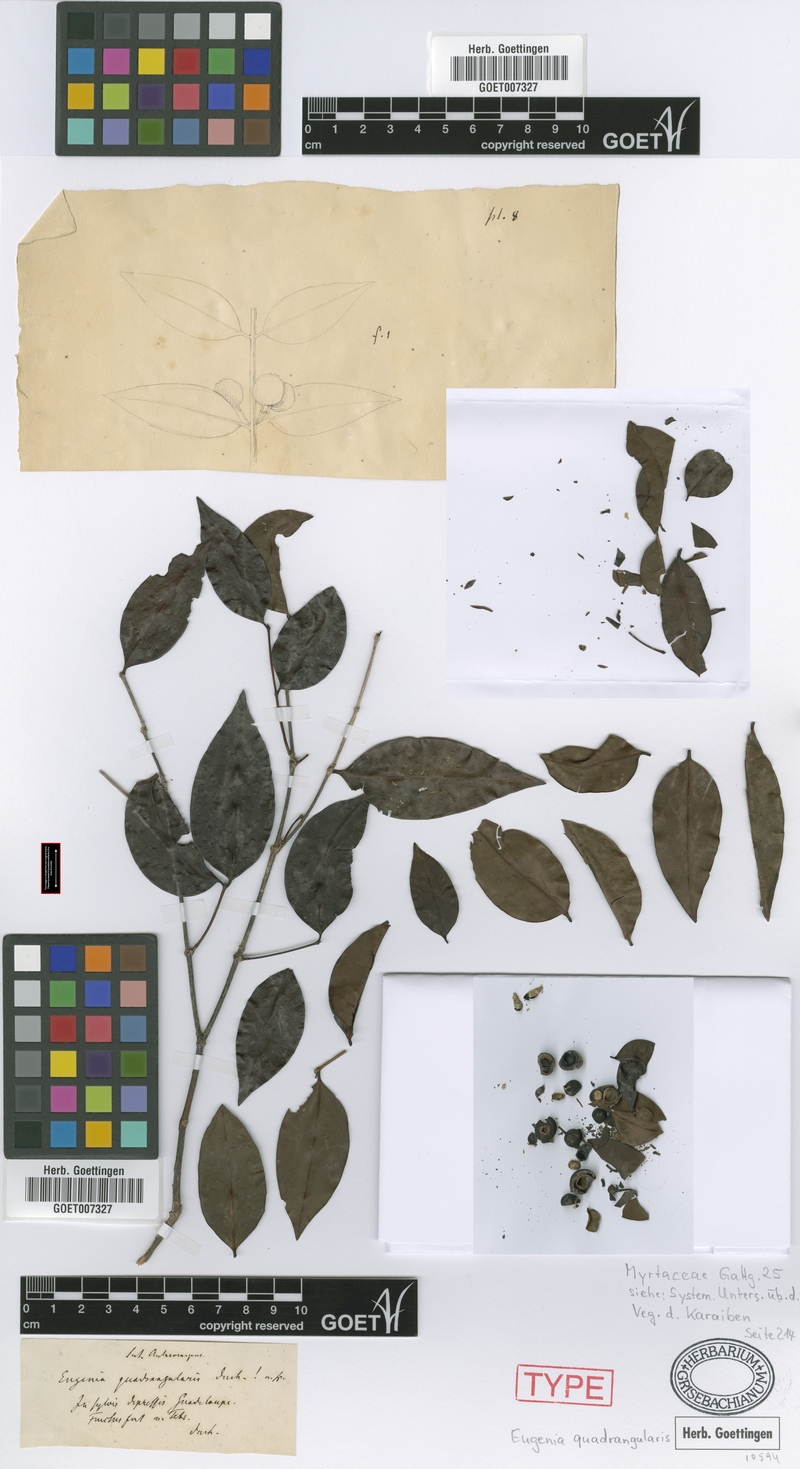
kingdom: Plantae
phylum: Tracheophyta
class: Magnoliopsida
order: Myrtales
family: Melastomataceae
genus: Mouriri
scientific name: Mouriri domingensis
